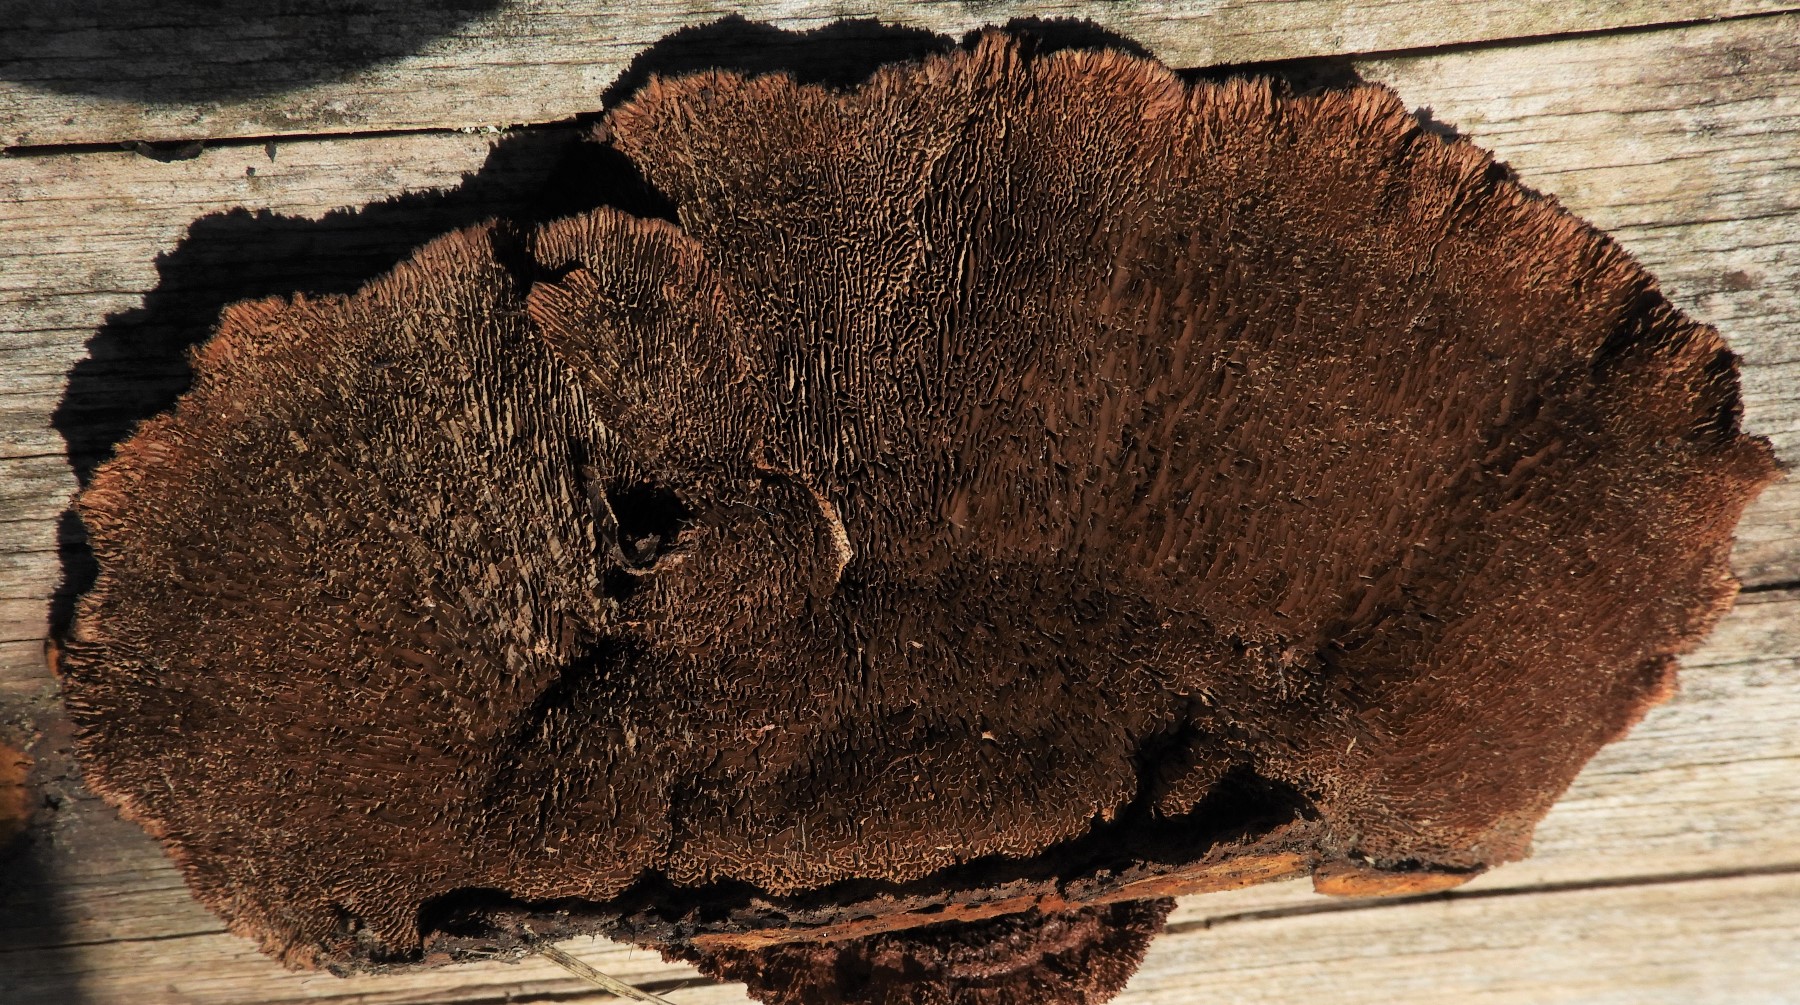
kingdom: Fungi
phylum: Basidiomycota
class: Agaricomycetes
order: Gloeophyllales
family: Gloeophyllaceae
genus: Gloeophyllum
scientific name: Gloeophyllum sepiarium
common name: fyrre-korkhat
